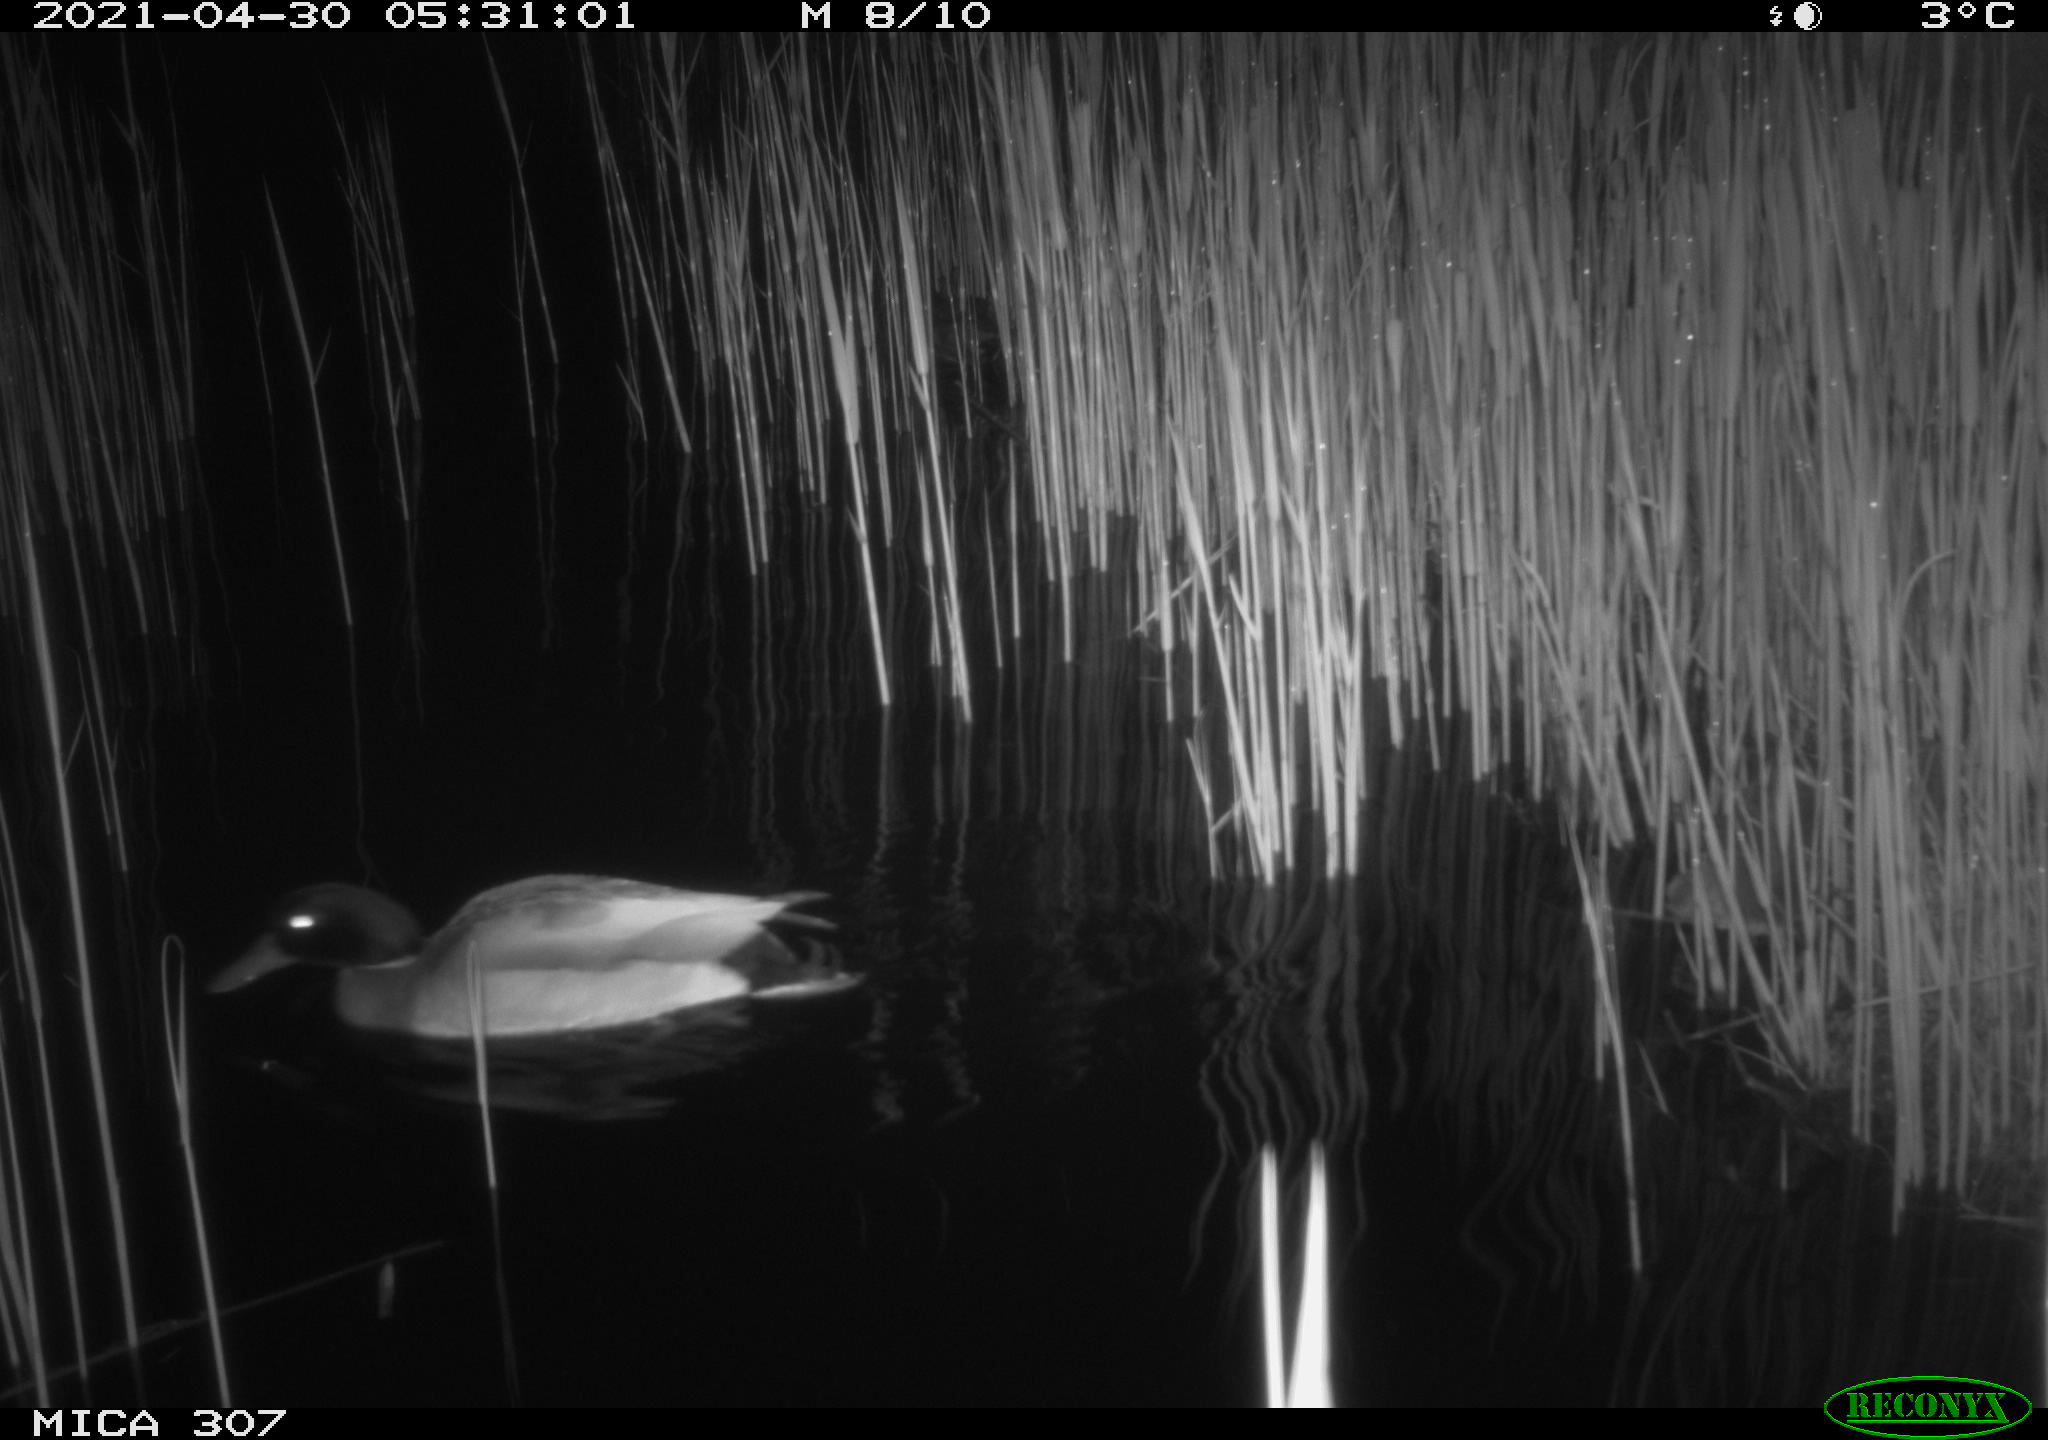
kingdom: Animalia
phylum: Chordata
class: Aves
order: Anseriformes
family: Anatidae
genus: Anas
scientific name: Anas platyrhynchos
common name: Mallard
